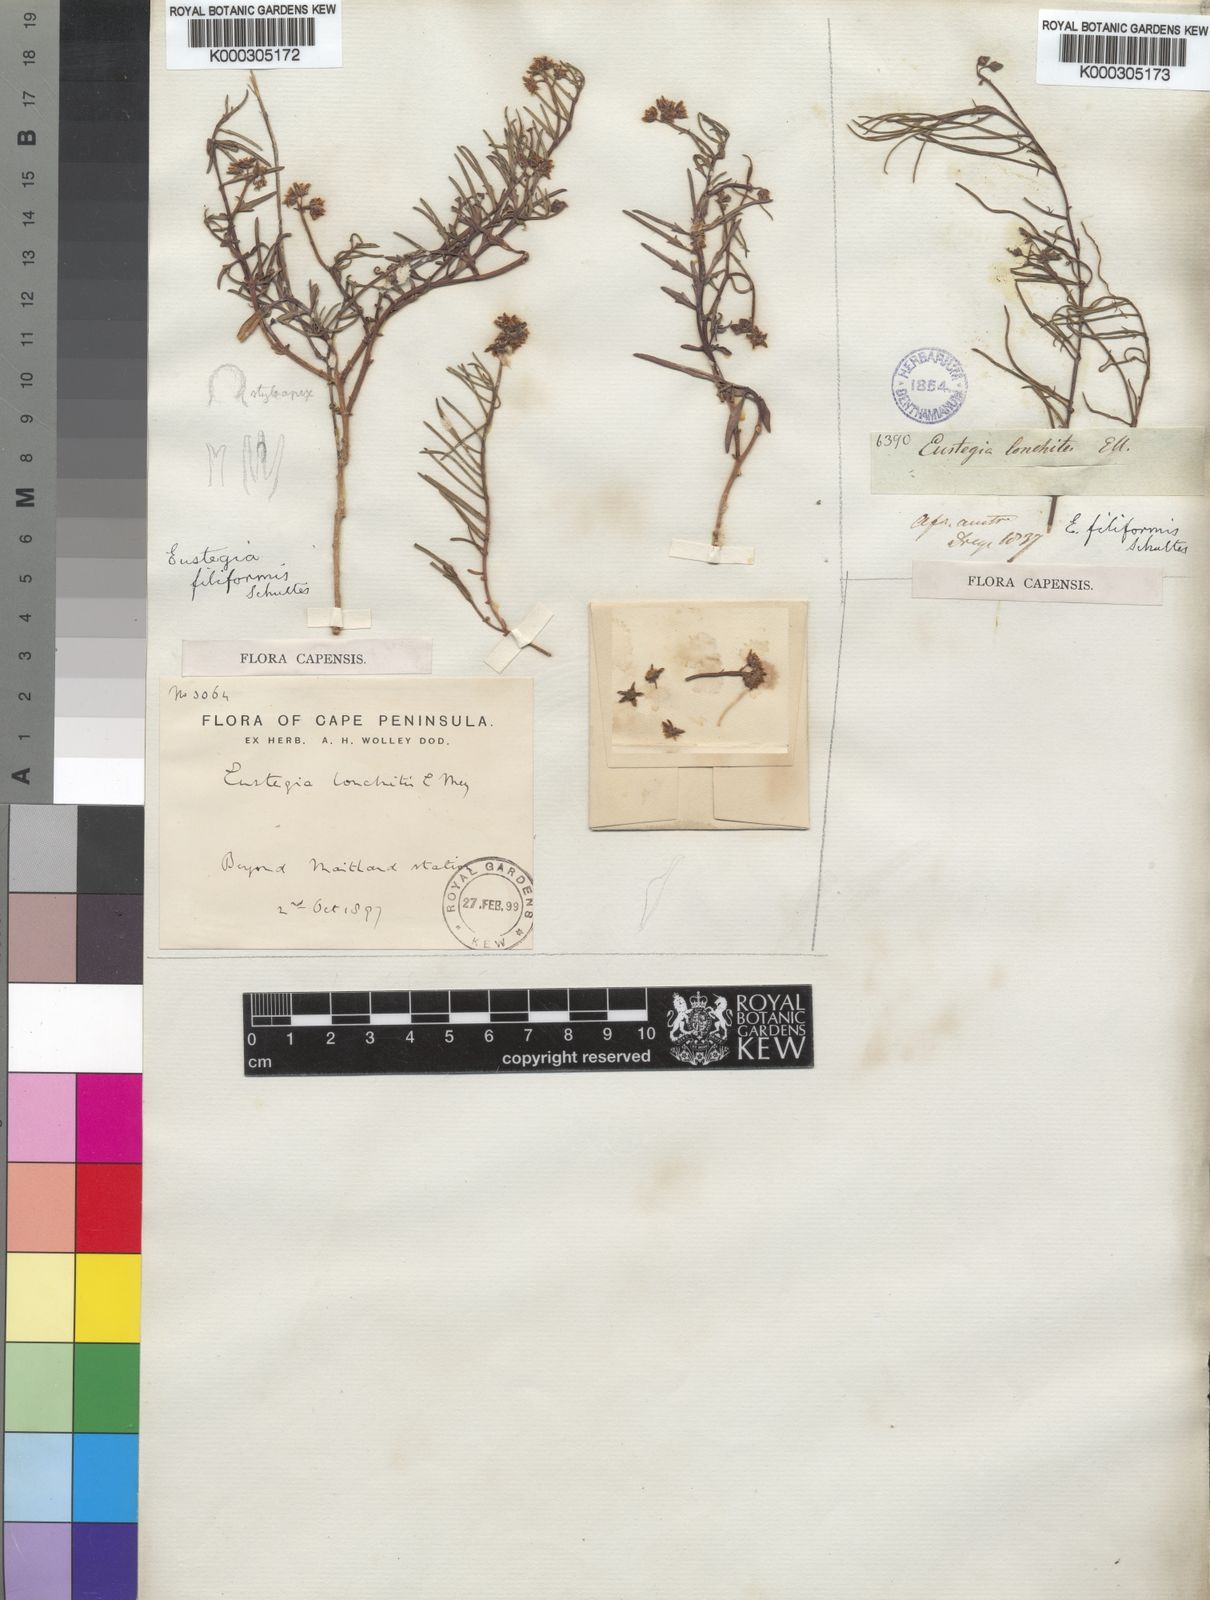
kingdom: Plantae
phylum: Tracheophyta
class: Magnoliopsida
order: Gentianales
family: Apocynaceae
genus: Eustegia
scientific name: Eustegia filiformis
